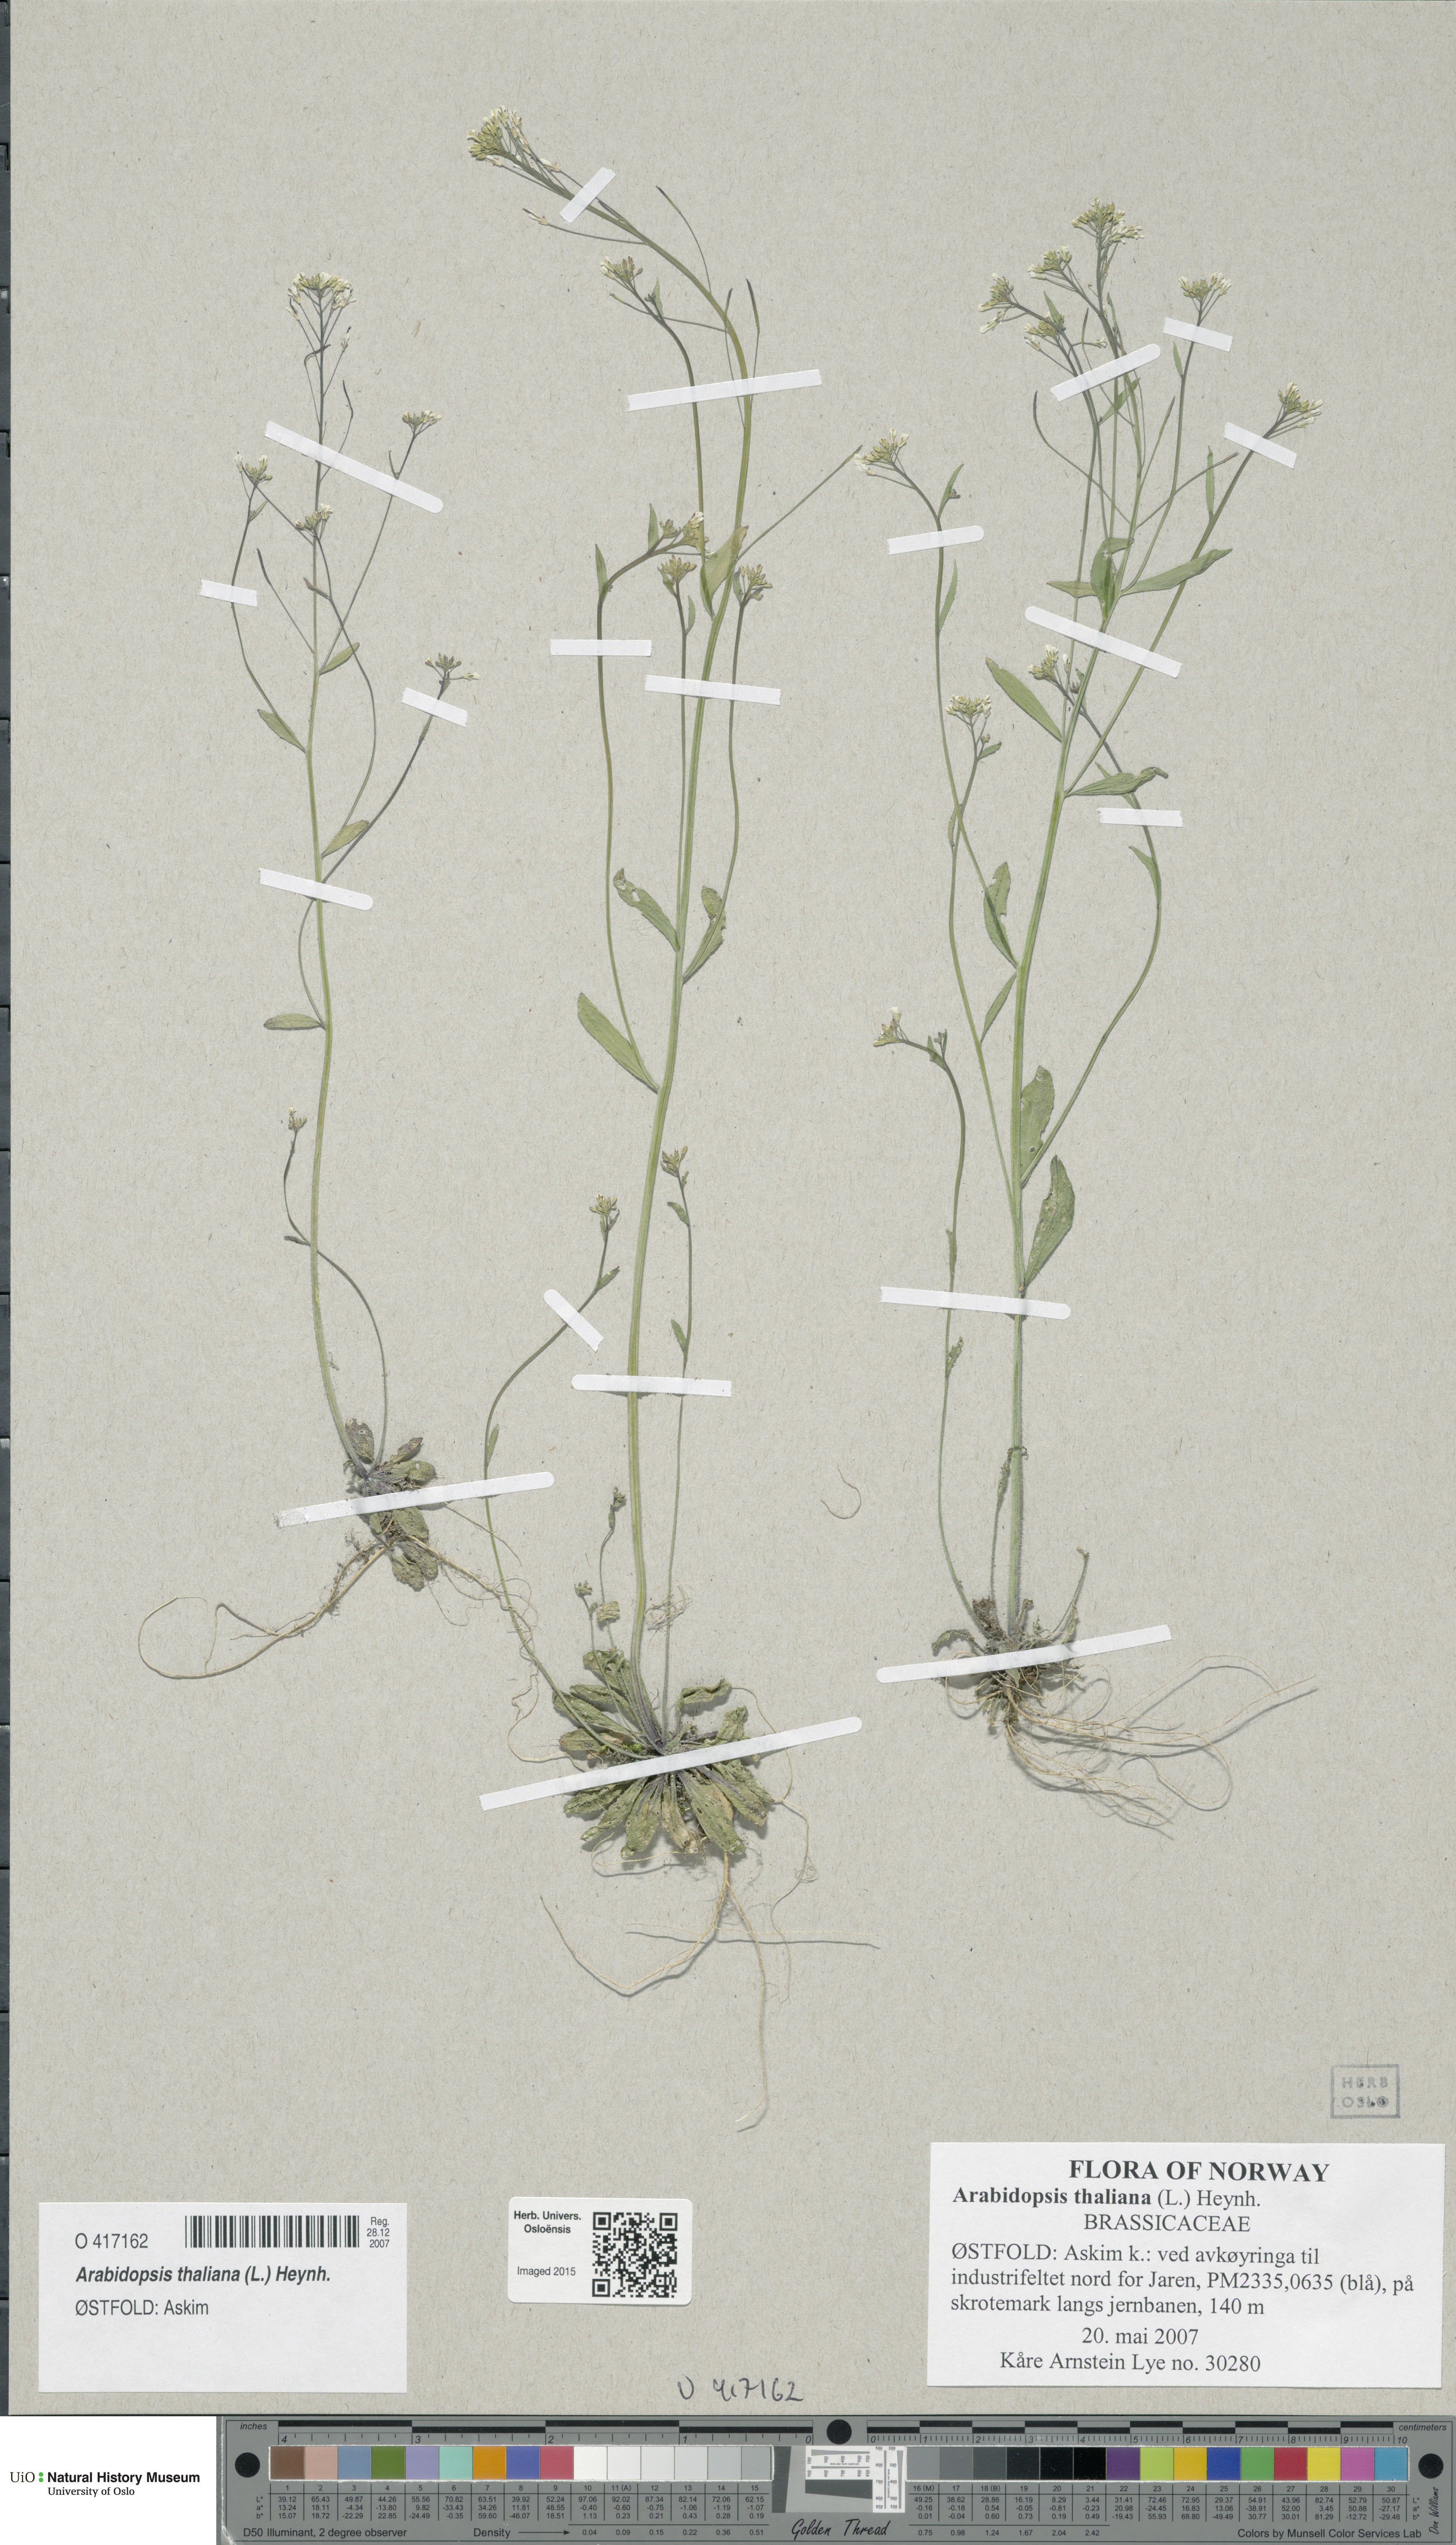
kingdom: Plantae
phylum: Tracheophyta
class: Magnoliopsida
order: Brassicales
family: Brassicaceae
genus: Arabidopsis
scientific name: Arabidopsis thaliana
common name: Thale cress
